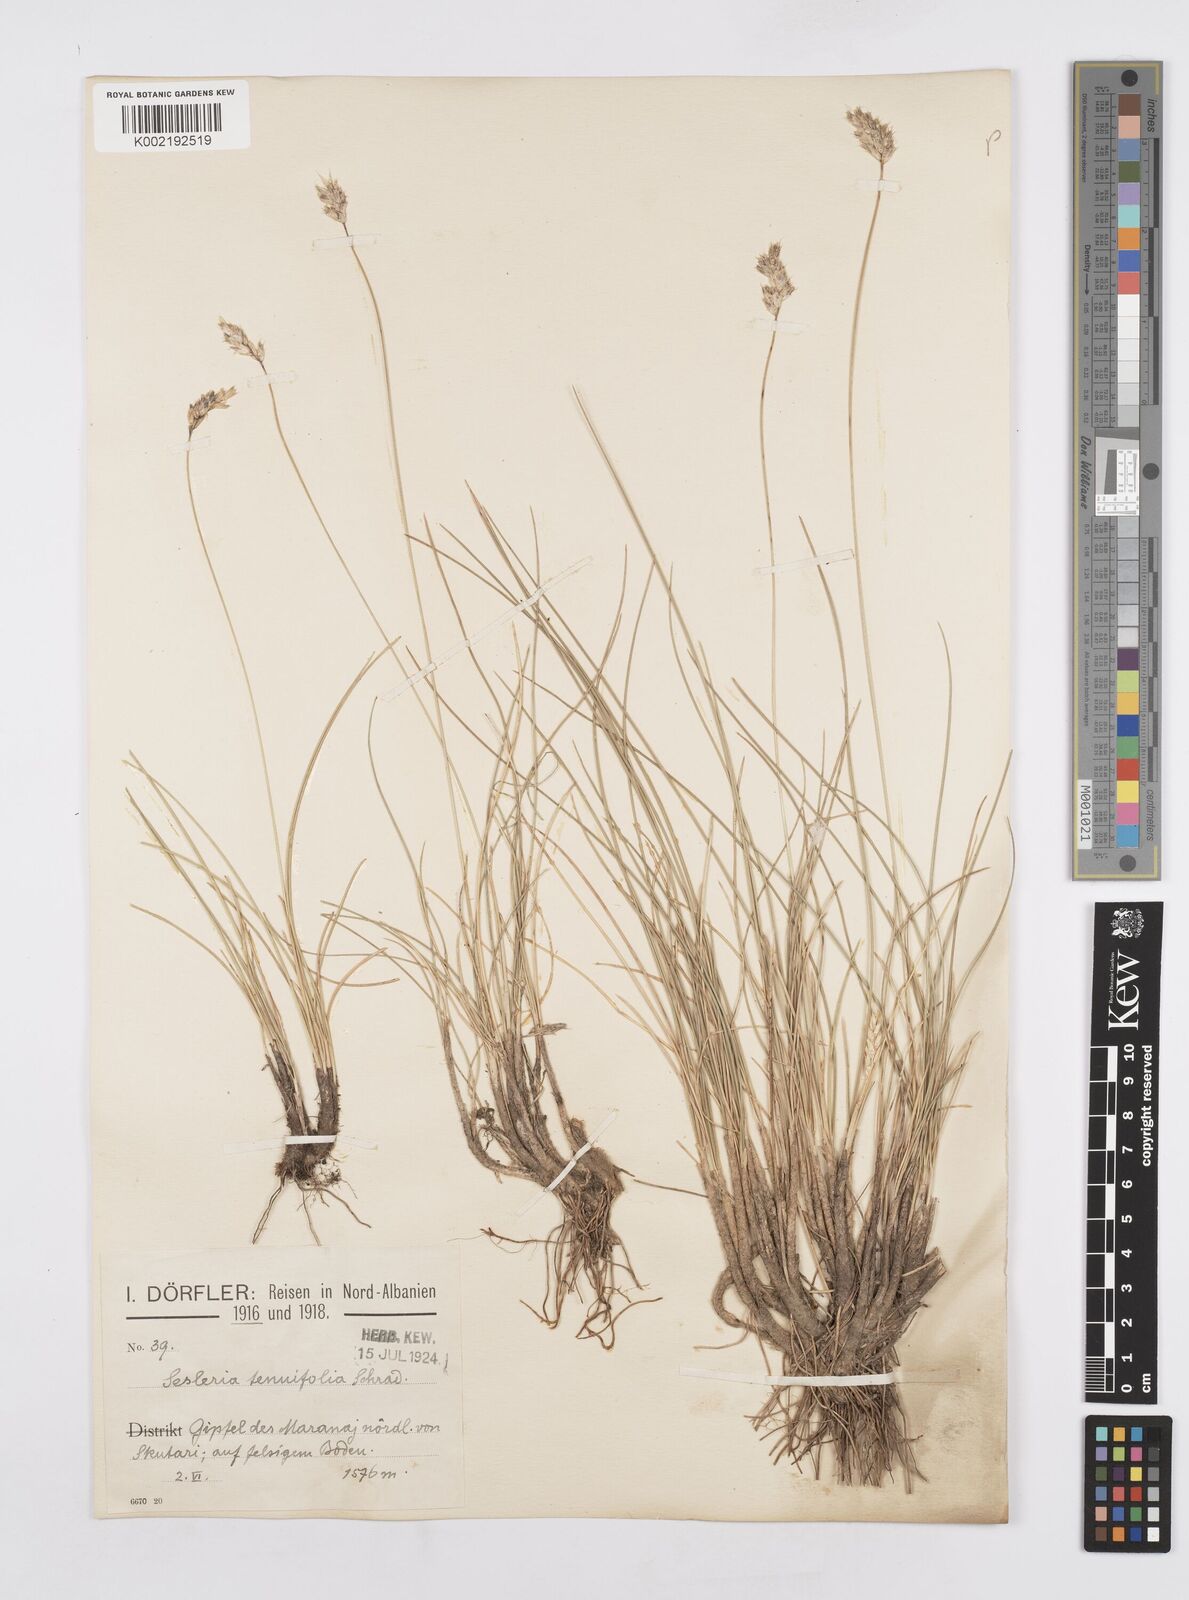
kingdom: Plantae
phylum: Tracheophyta
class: Liliopsida
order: Poales
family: Poaceae
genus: Sesleria
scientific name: Sesleria juncifolia
